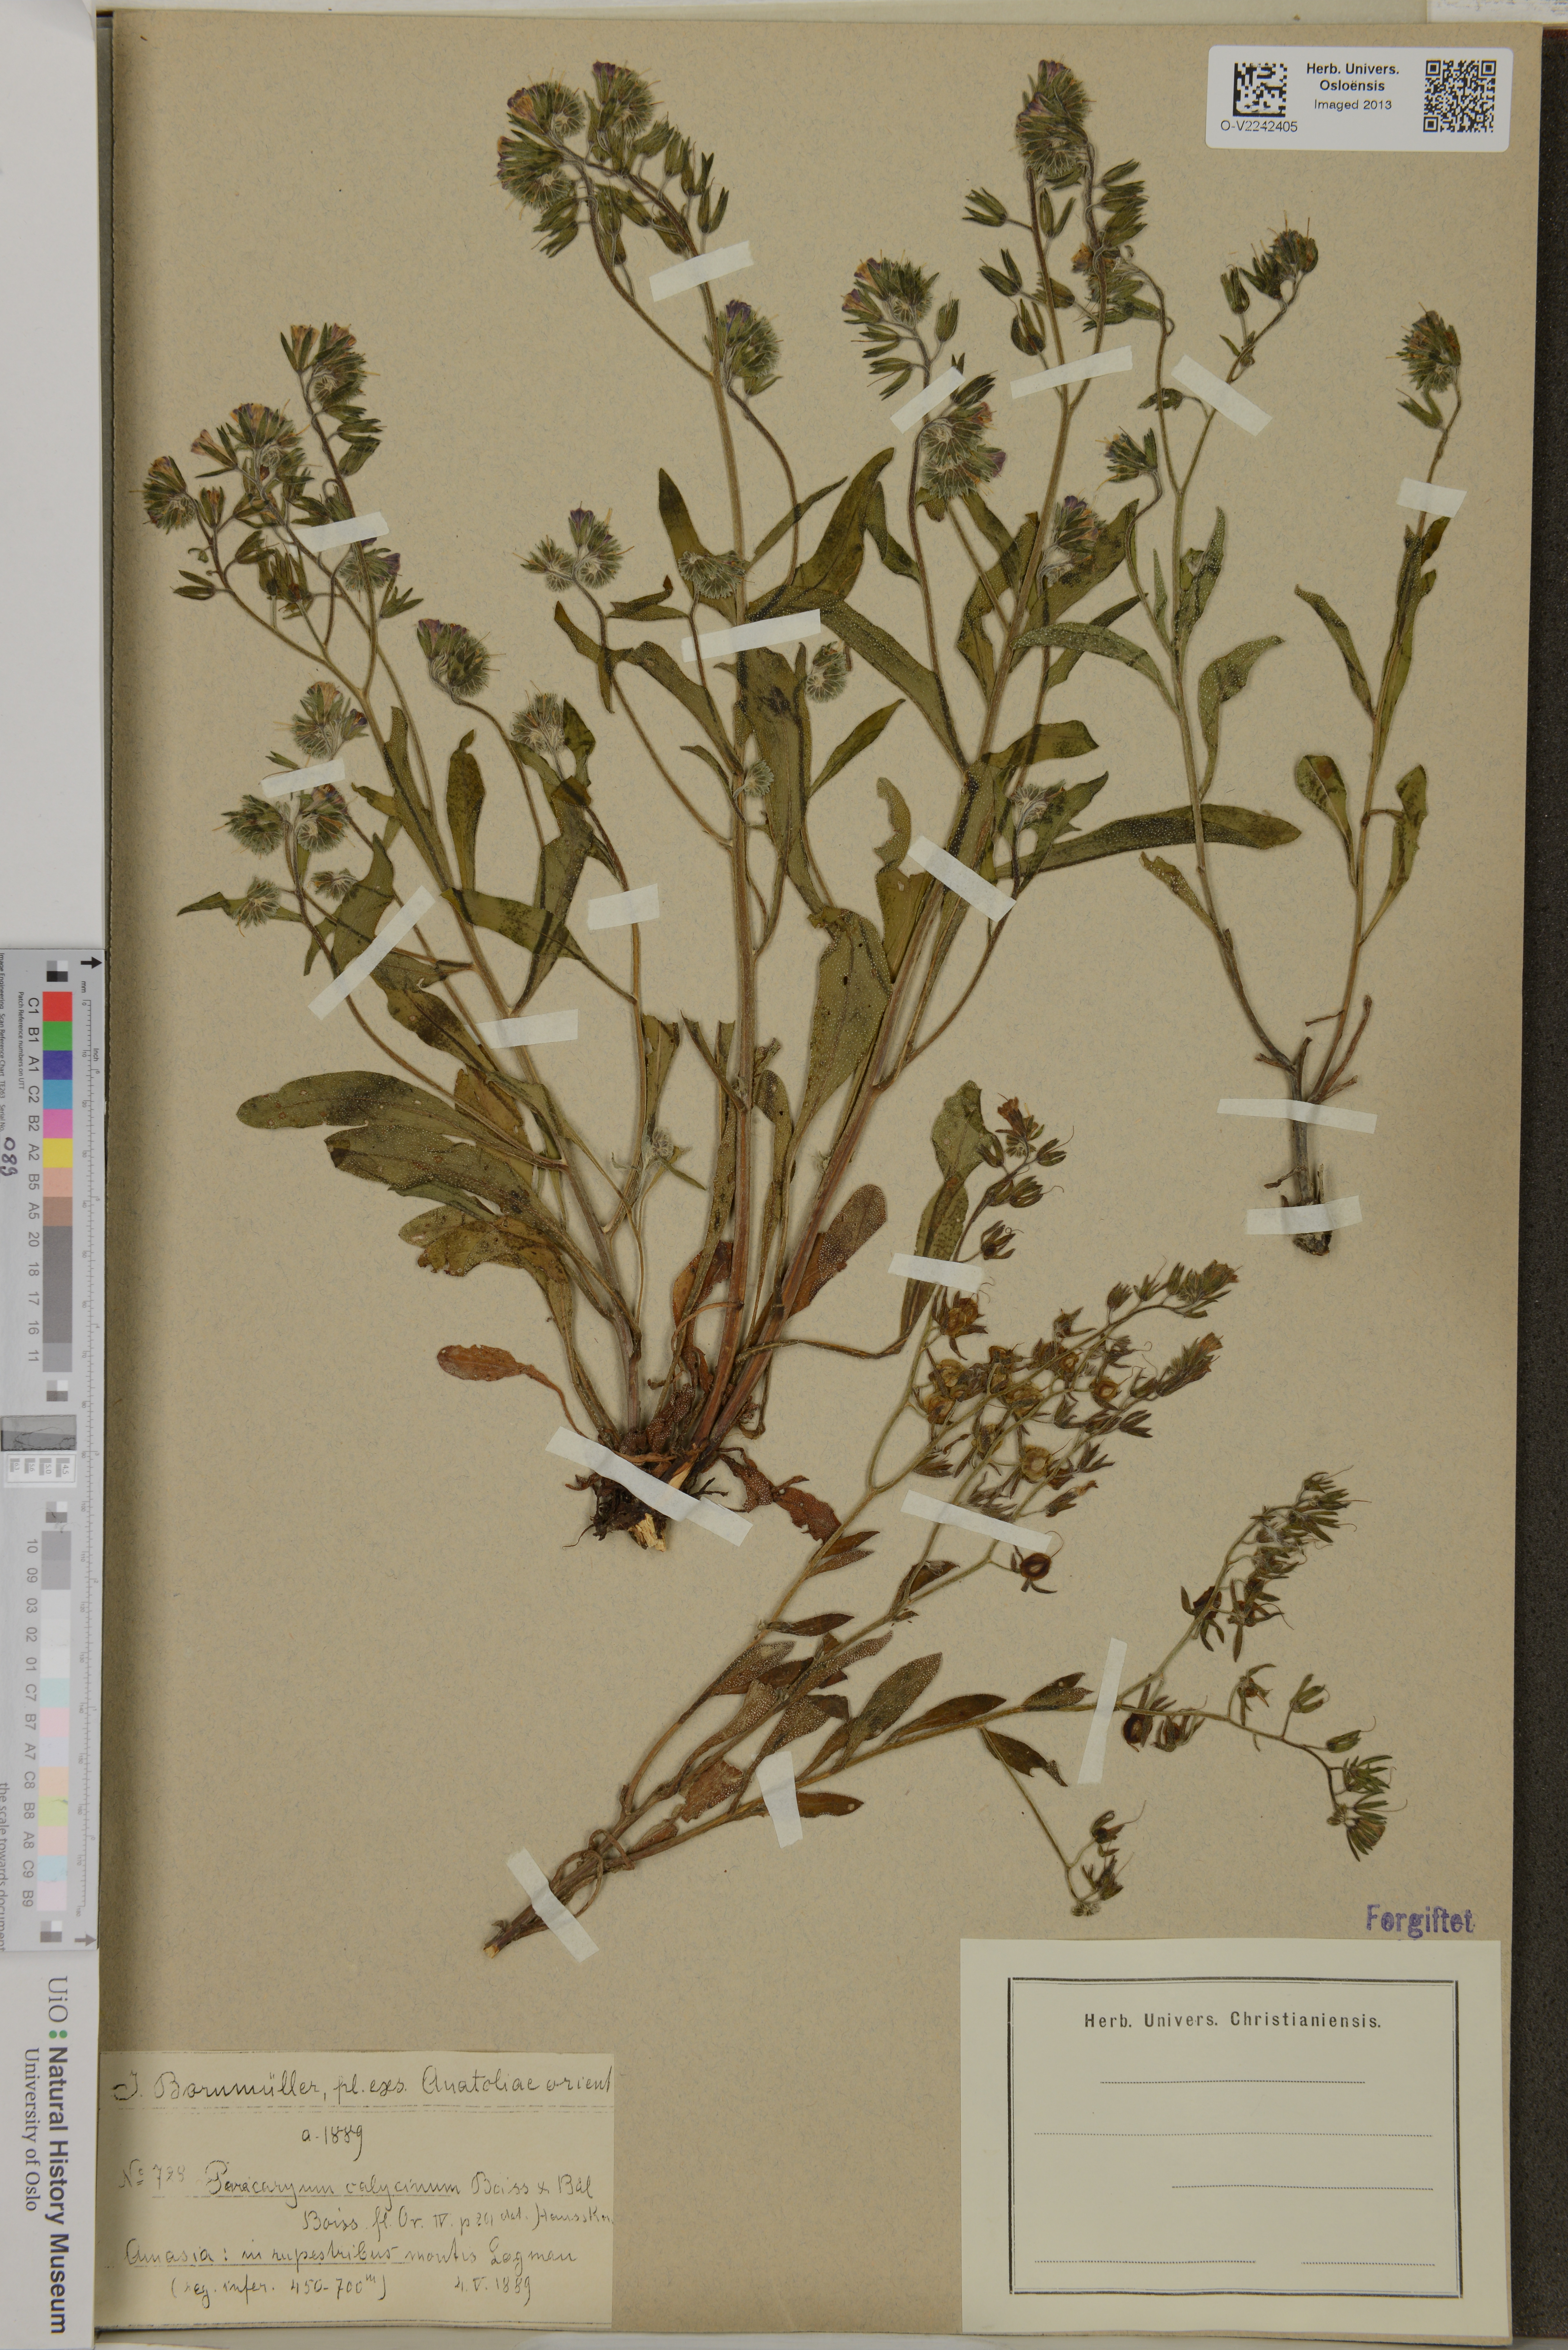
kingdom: Plantae
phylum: Tracheophyta
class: Magnoliopsida
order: Boraginales
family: Boraginaceae
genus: Paracaryum
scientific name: Paracaryum calycinum
